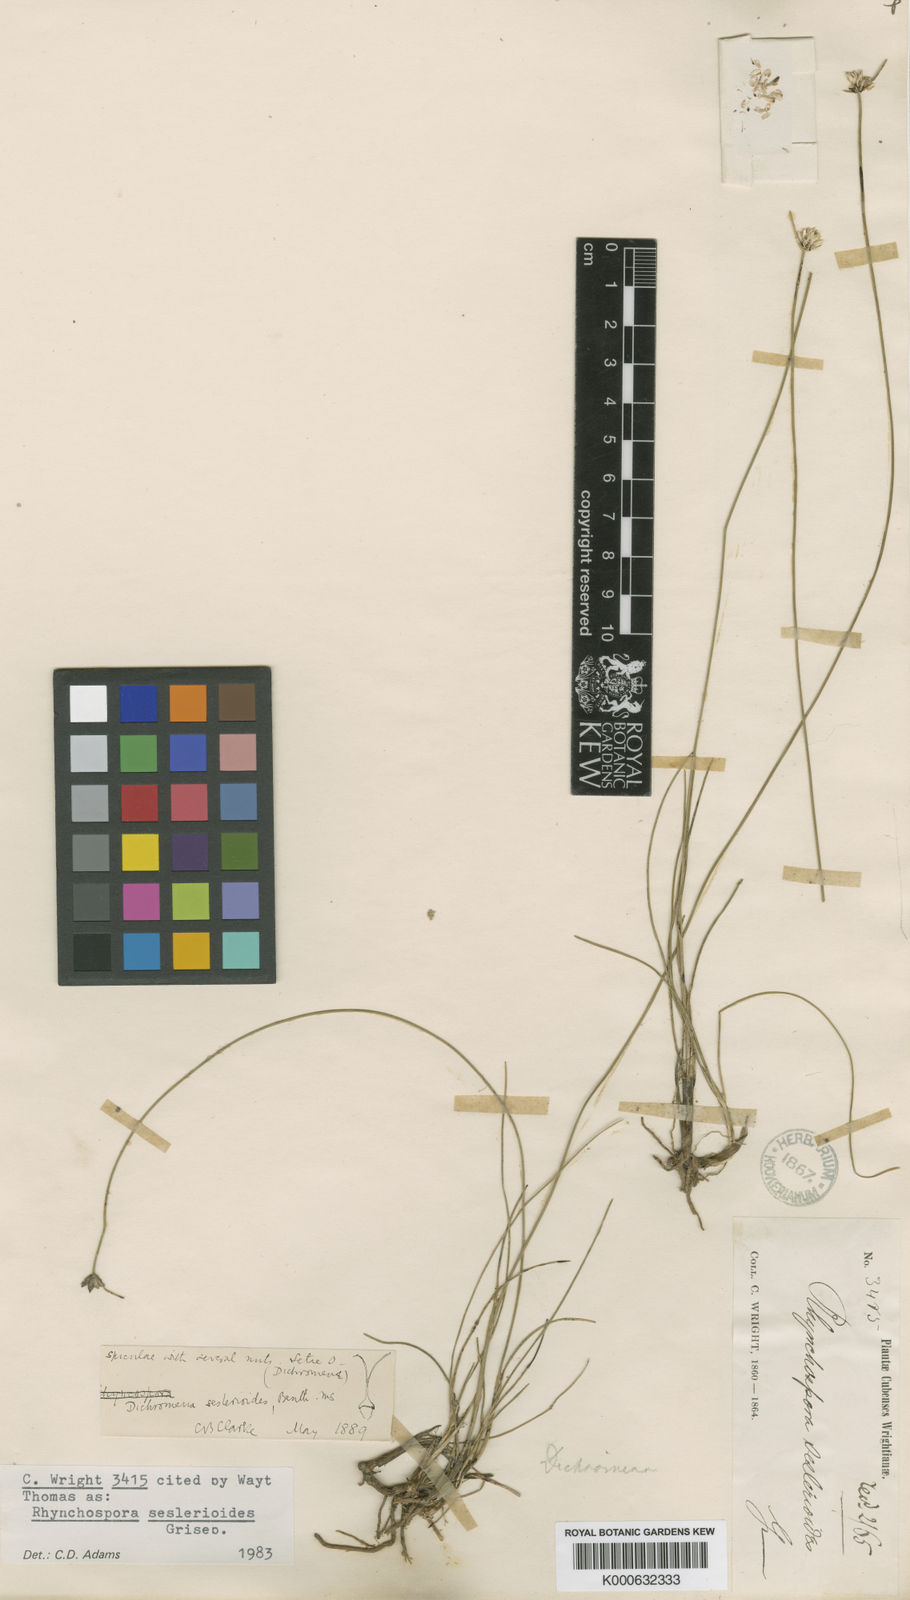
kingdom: Plantae
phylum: Tracheophyta
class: Liliopsida
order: Poales
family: Cyperaceae
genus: Rhynchospora
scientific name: Rhynchospora seslerioides
